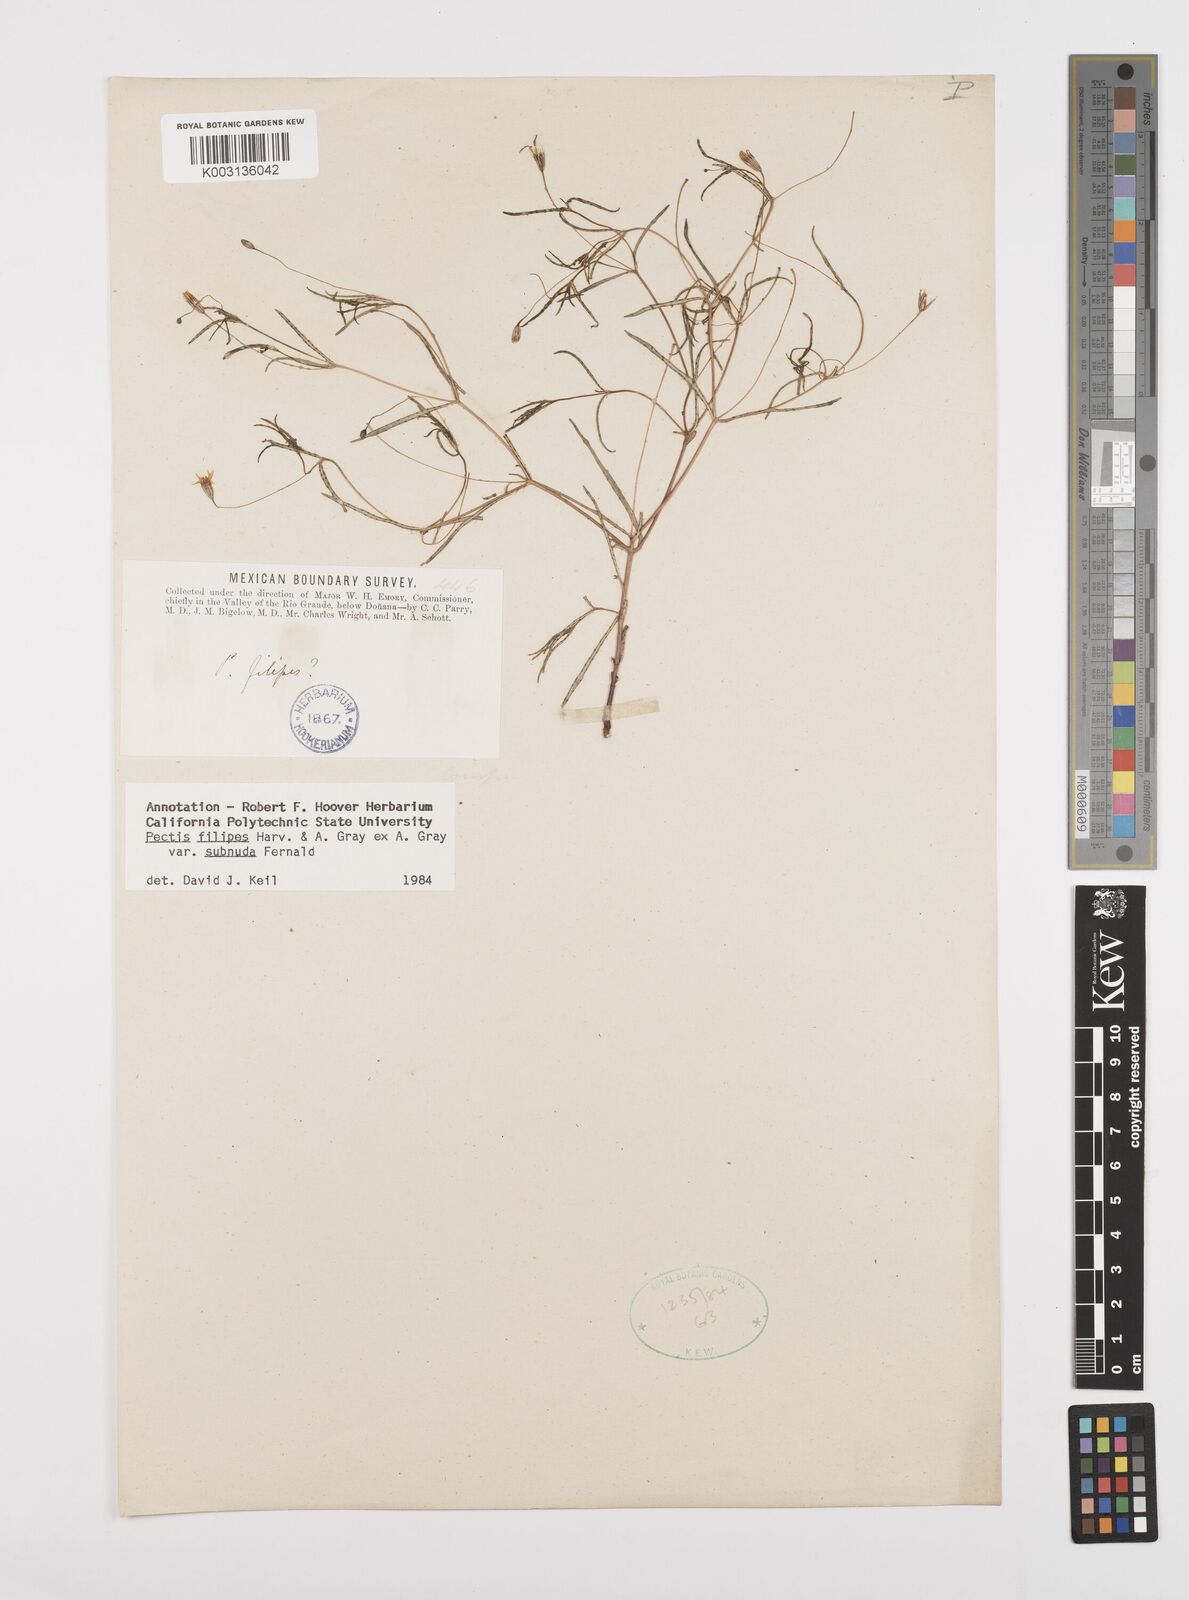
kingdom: Plantae
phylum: Tracheophyta
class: Magnoliopsida
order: Asterales
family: Asteraceae
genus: Pectis
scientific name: Pectis filipes
